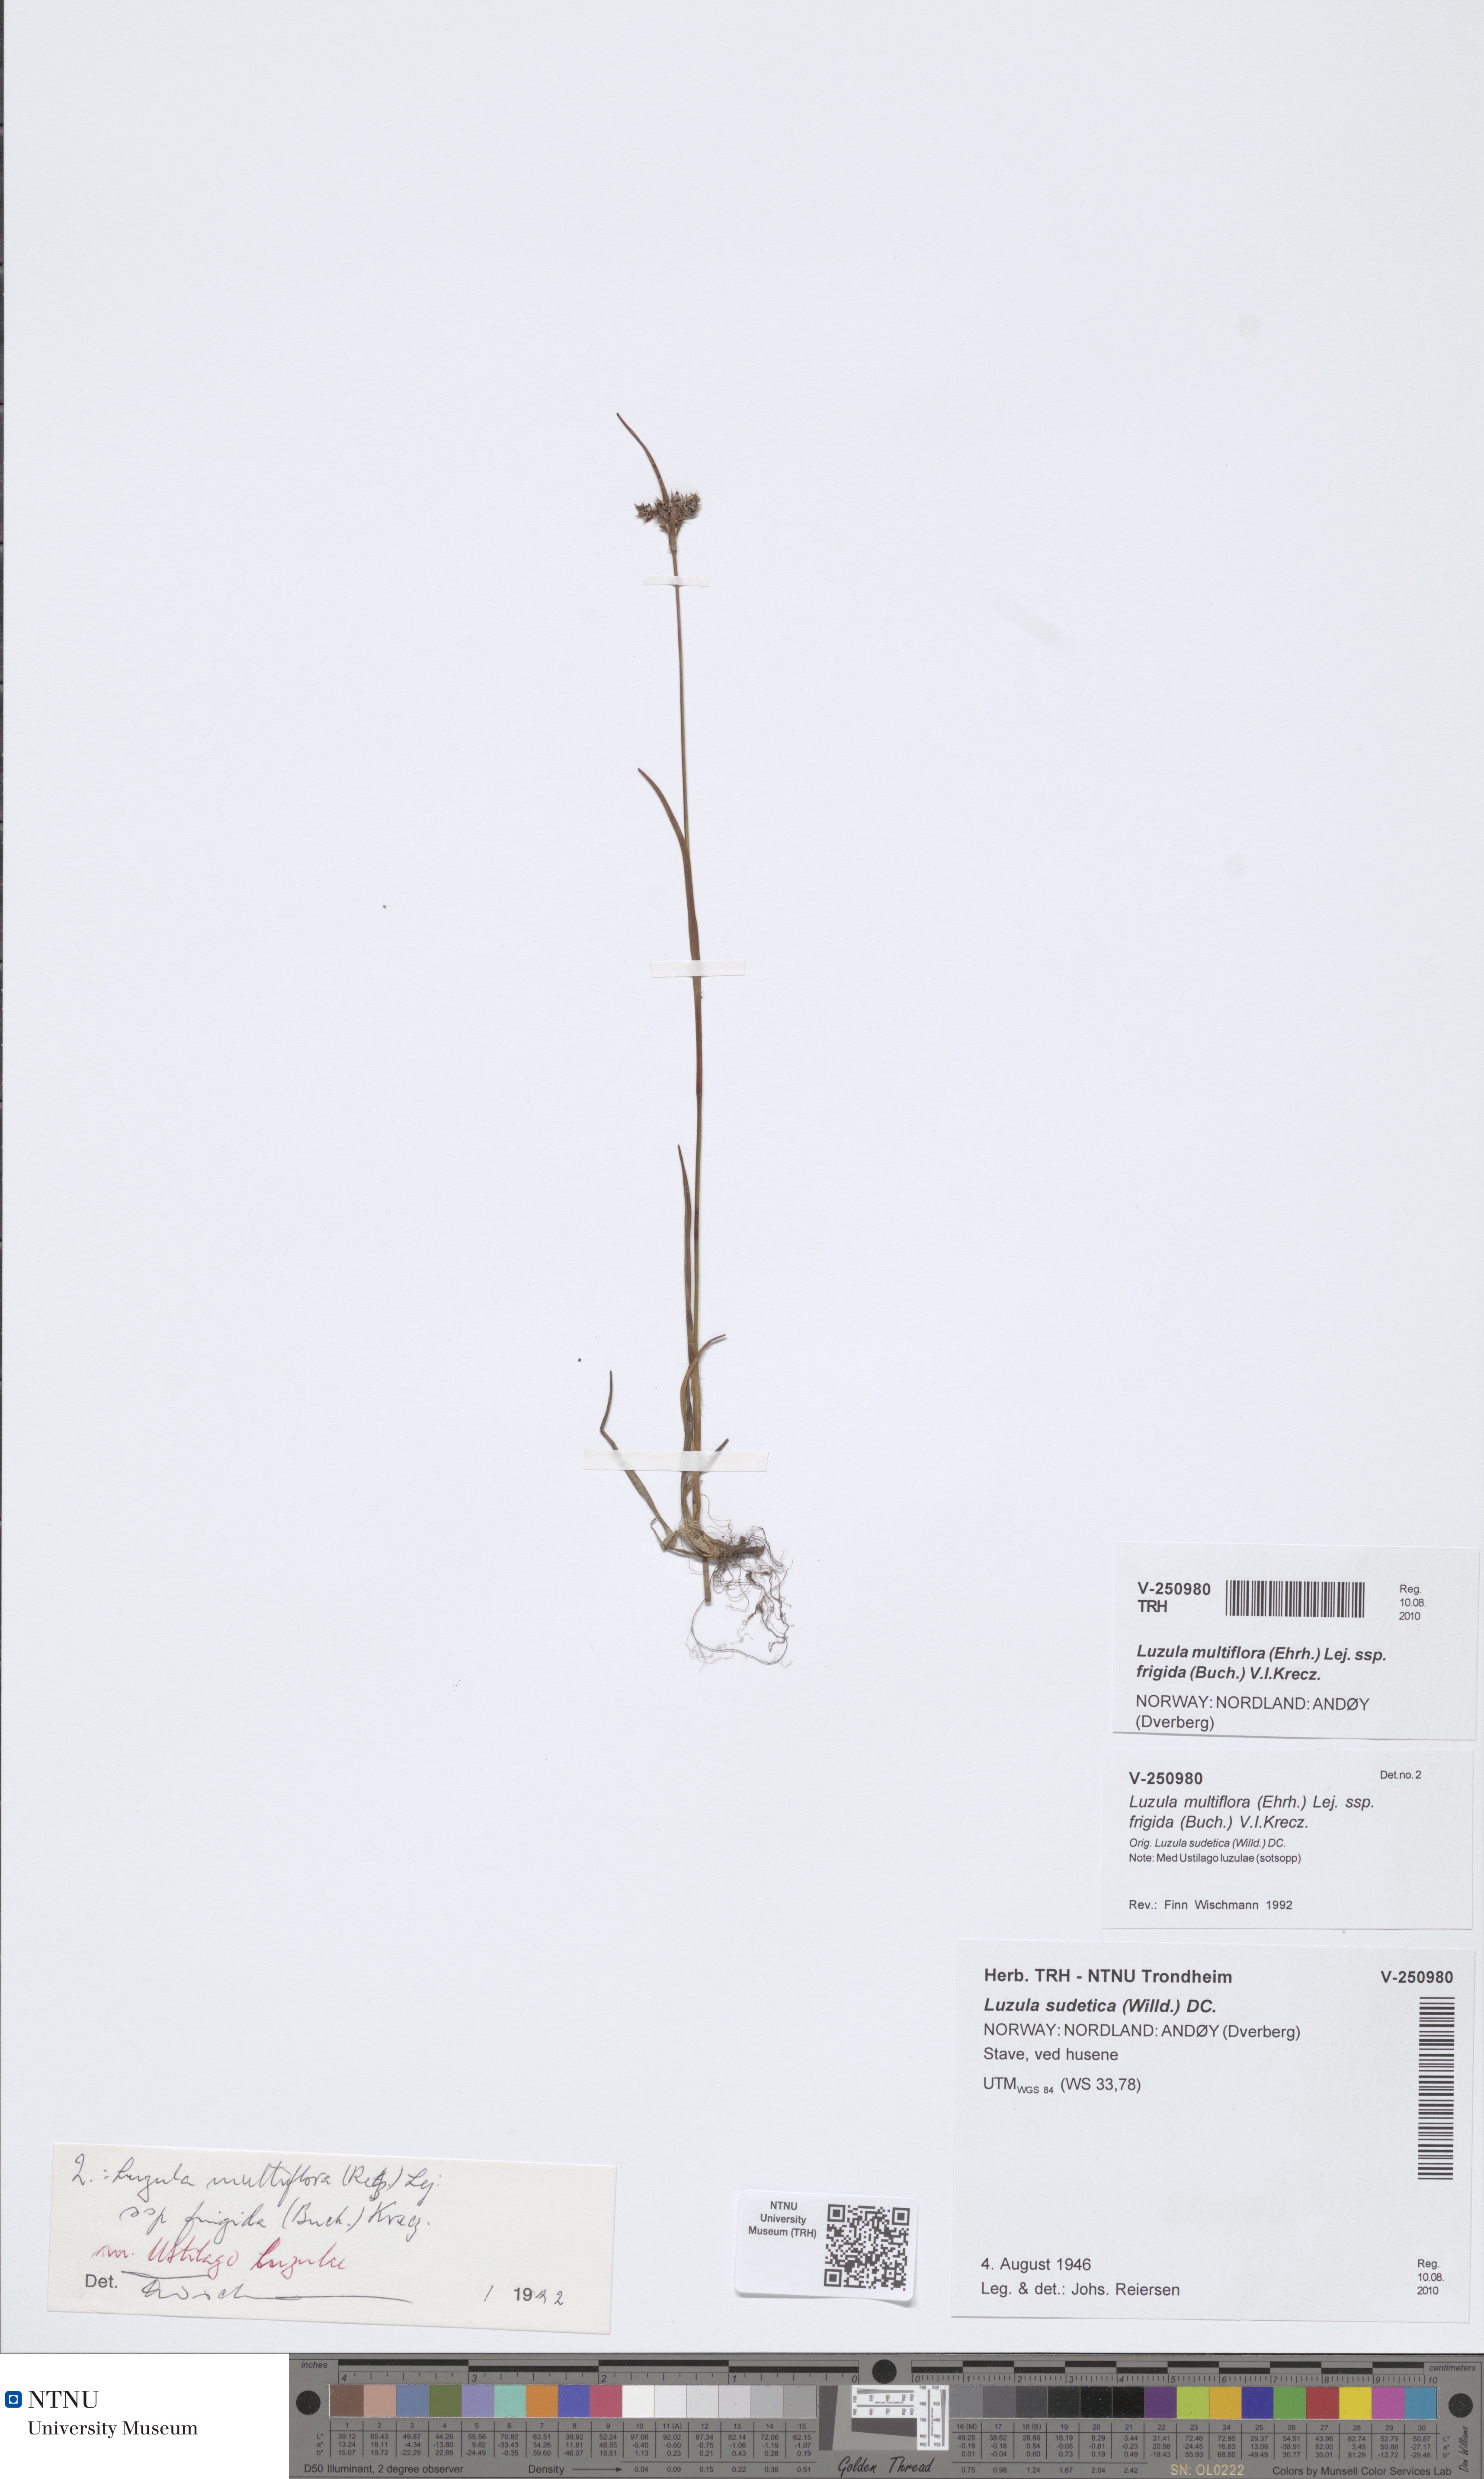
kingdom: Plantae
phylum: Tracheophyta
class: Liliopsida
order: Poales
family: Juncaceae
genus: Luzula
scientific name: Luzula multiflora
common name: Heath wood-rush
